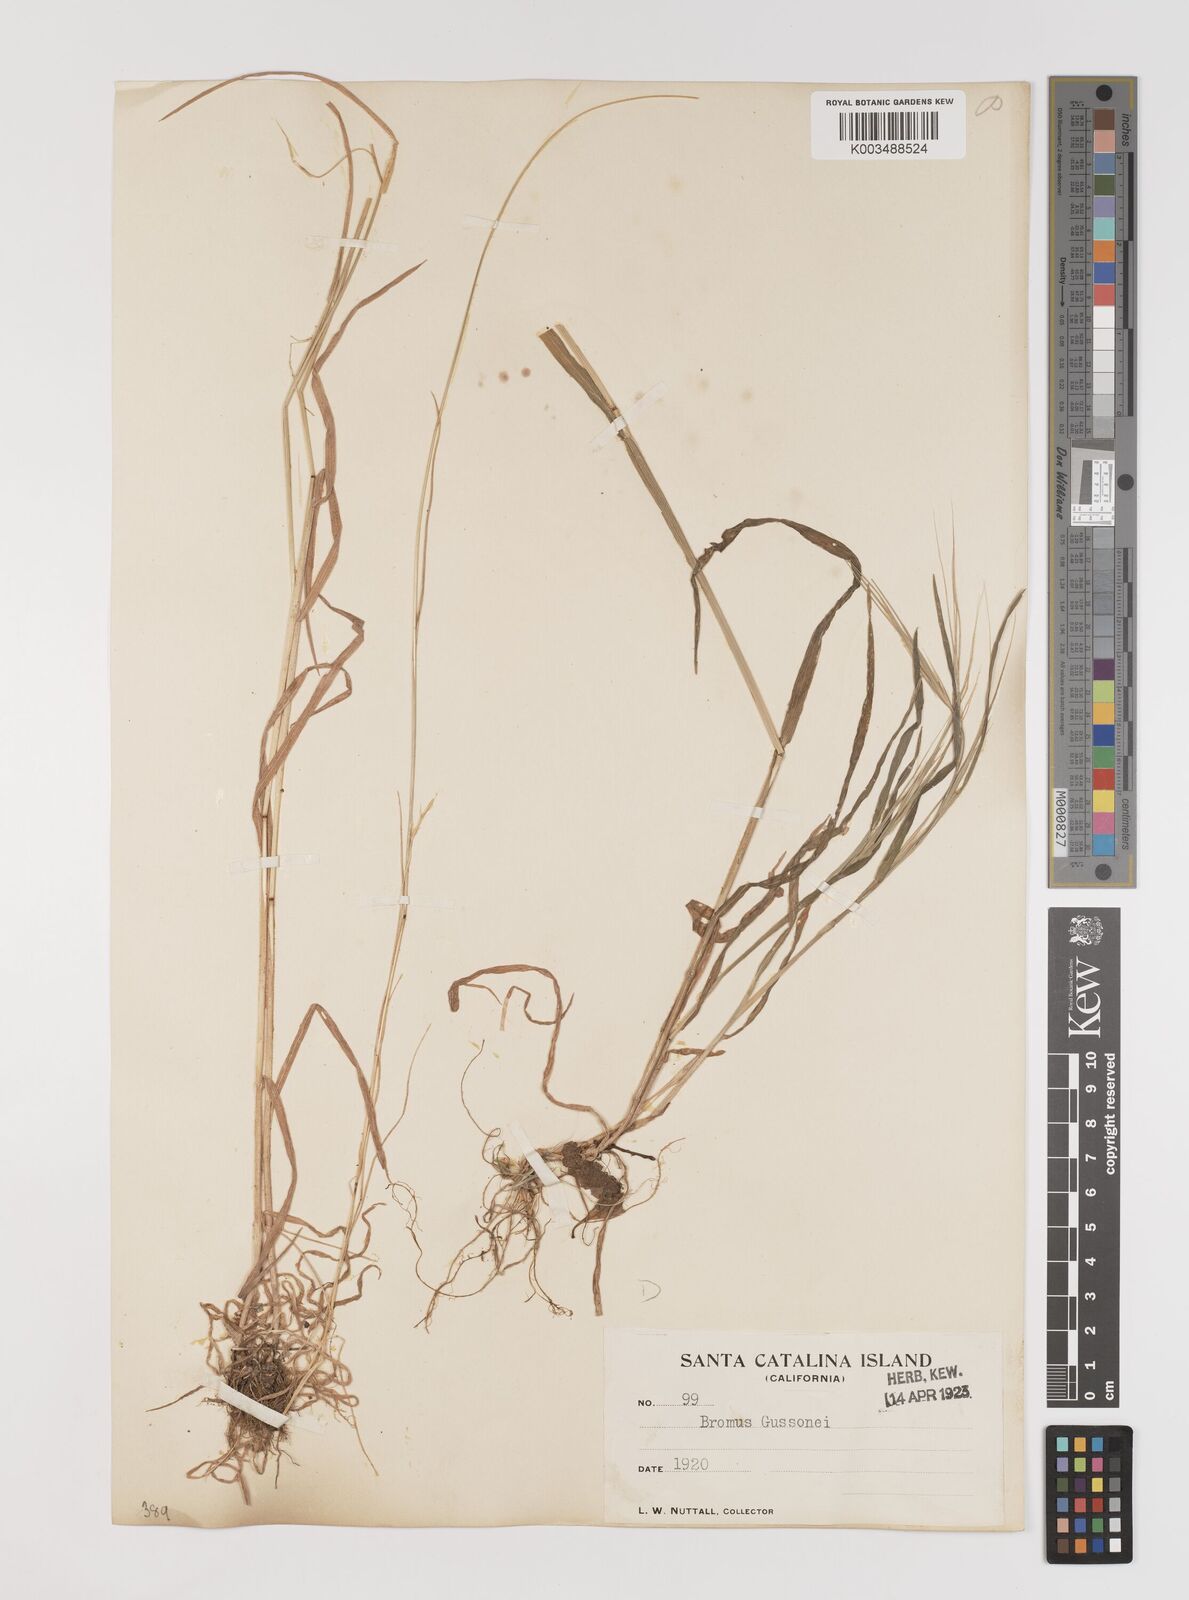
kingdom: Plantae
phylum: Tracheophyta
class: Liliopsida
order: Poales
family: Poaceae
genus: Bromus
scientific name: Bromus diandrus
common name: Ripgut brome
